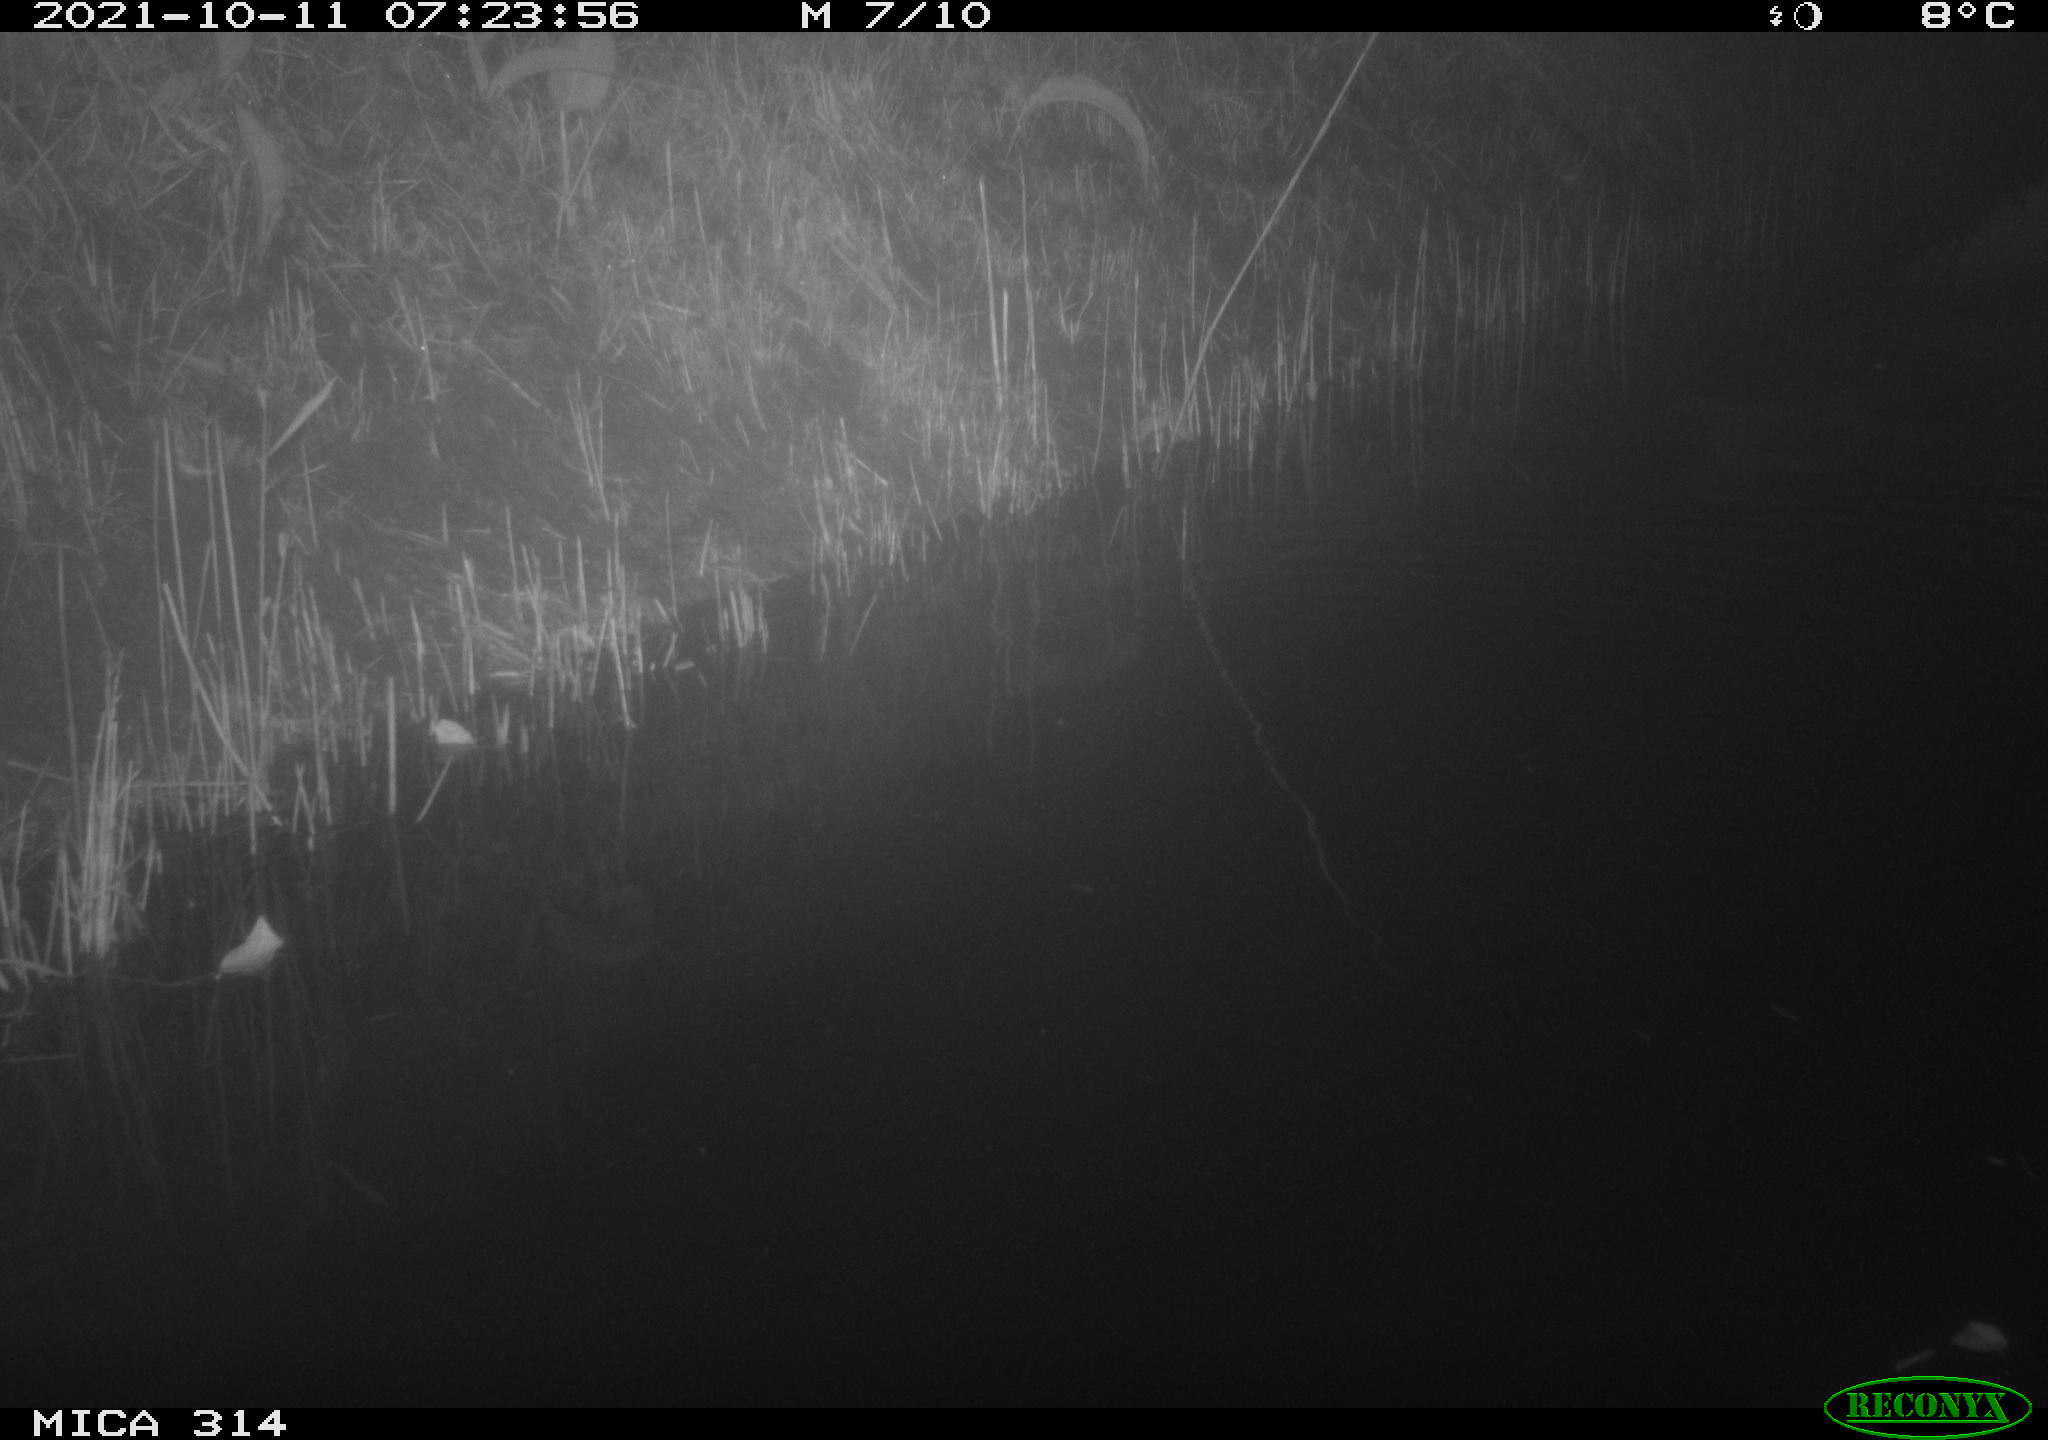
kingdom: Animalia
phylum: Chordata
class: Mammalia
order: Rodentia
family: Muridae
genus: Rattus
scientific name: Rattus norvegicus
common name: Brown rat
